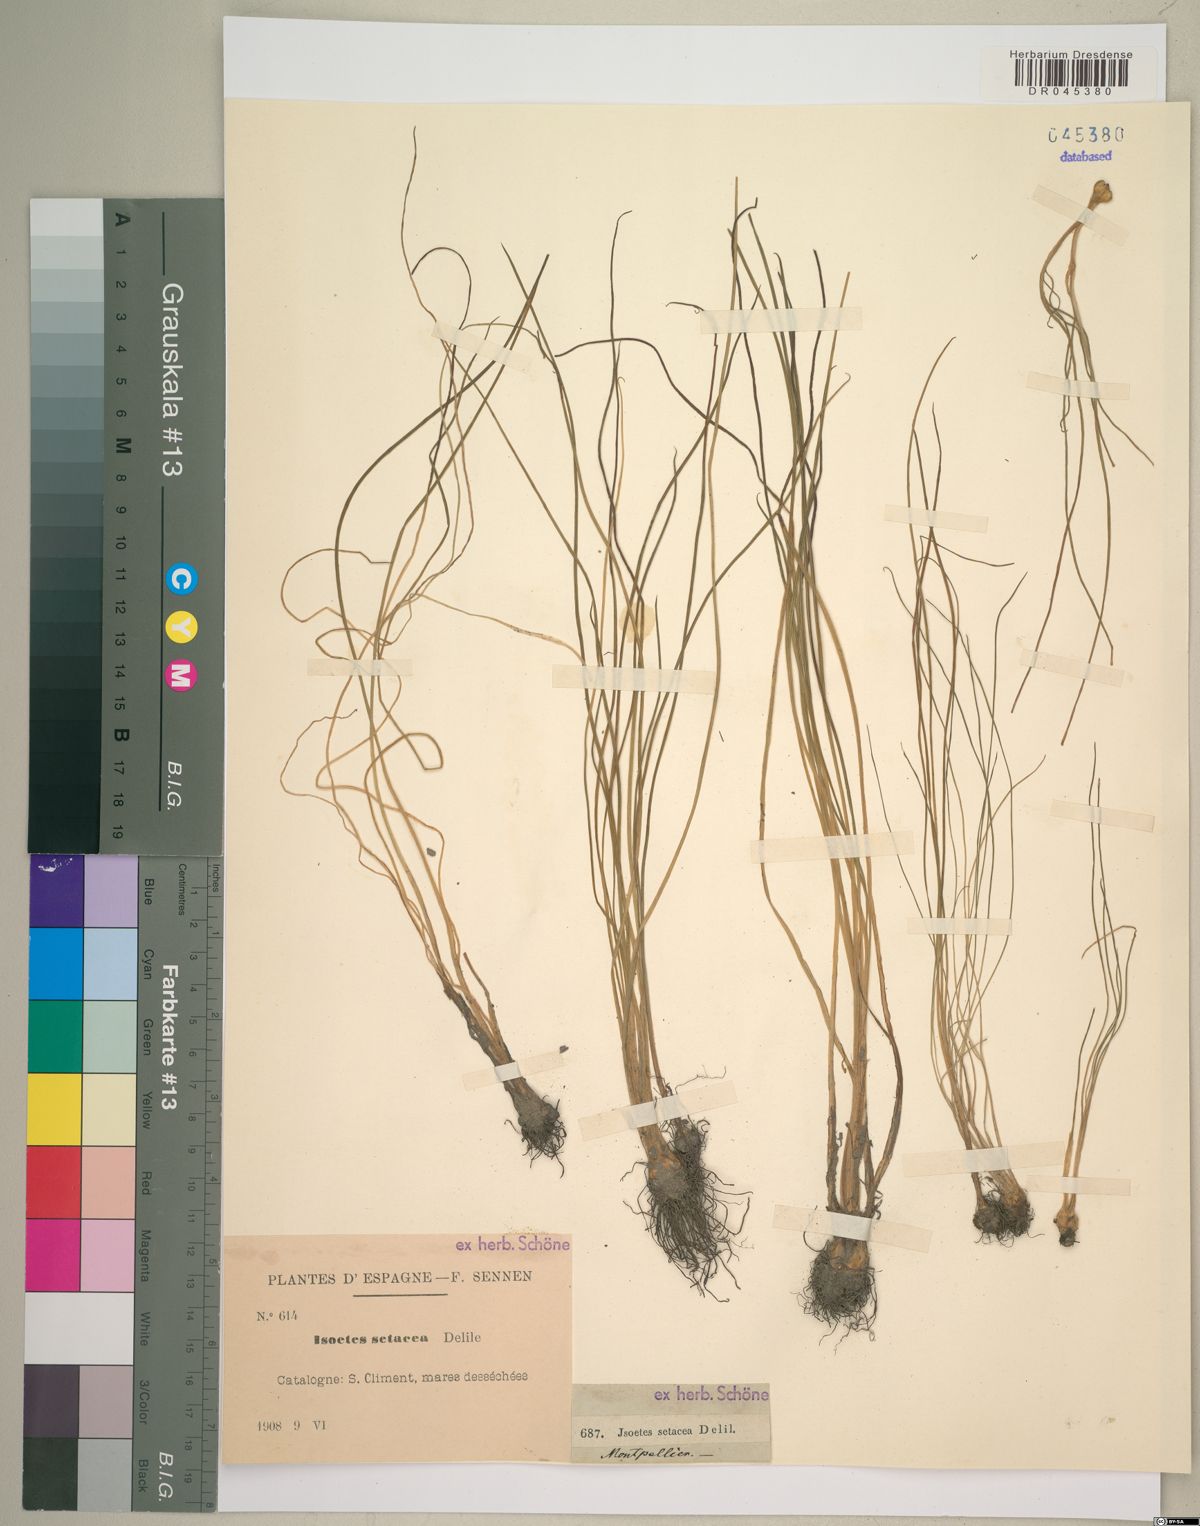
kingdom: Plantae
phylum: Tracheophyta
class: Lycopodiopsida
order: Isoetales
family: Isoetaceae
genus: Isoetes
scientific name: Isoetes lacustris
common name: Common quillwort
